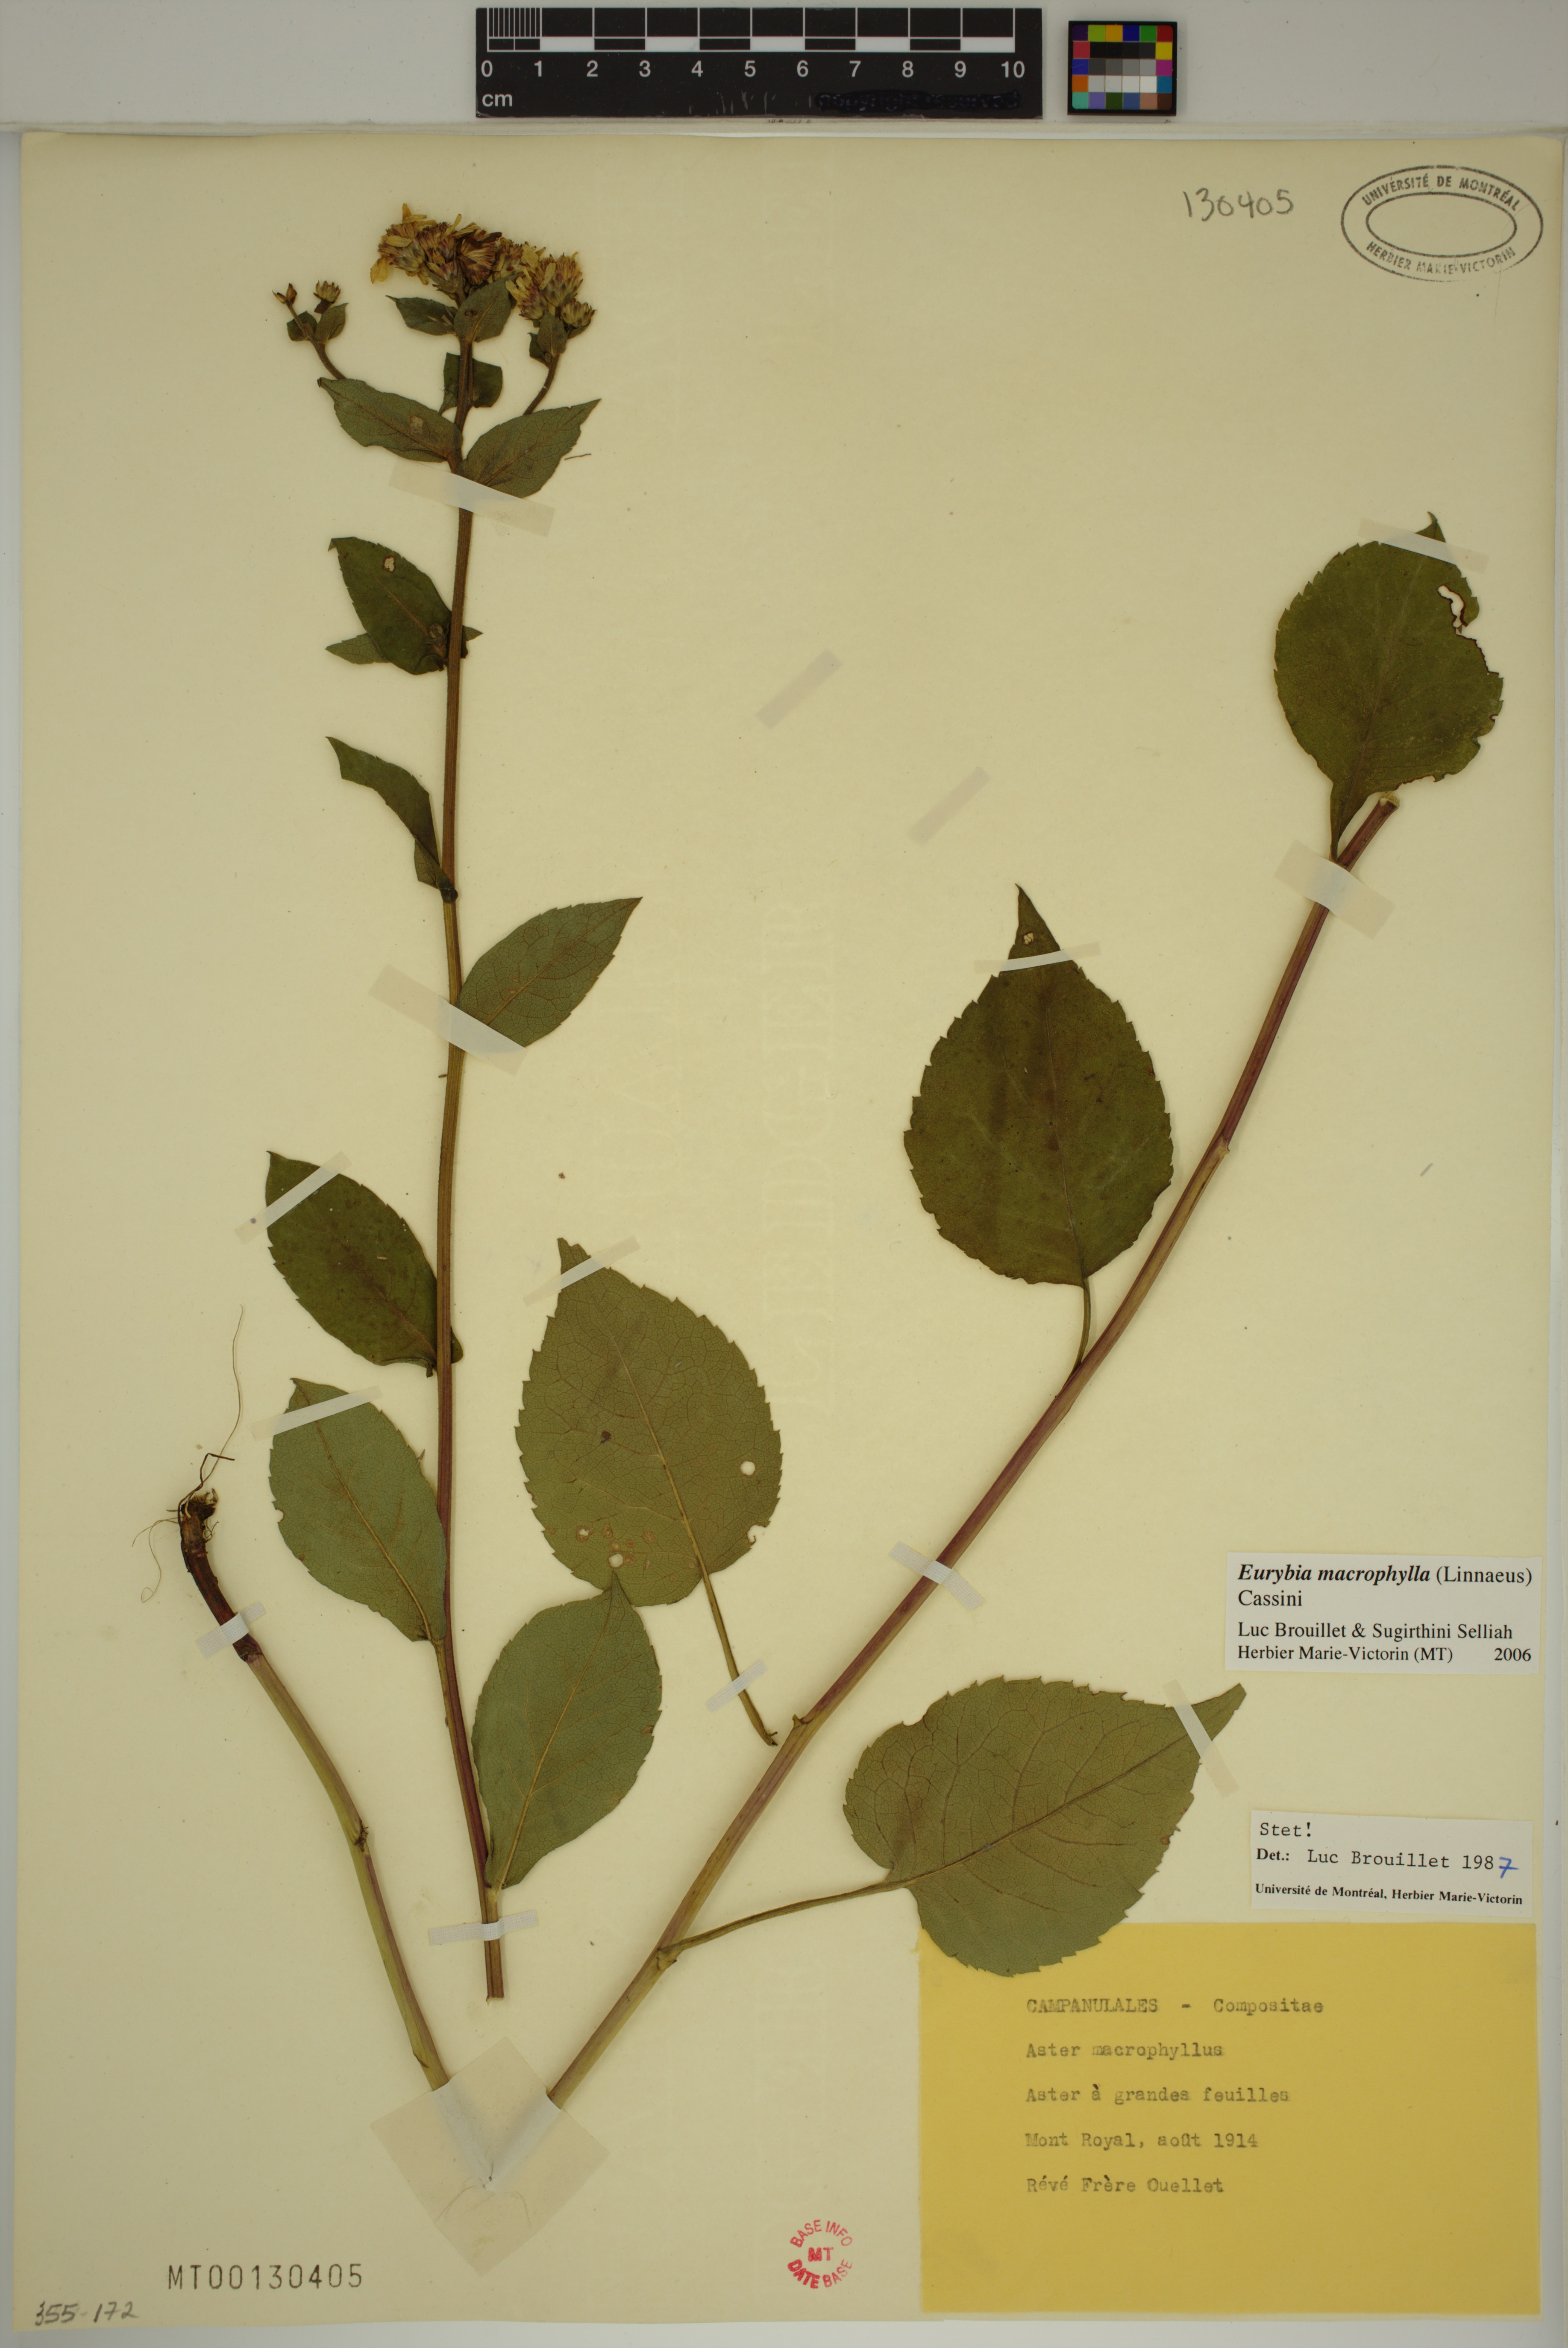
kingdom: Plantae
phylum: Tracheophyta
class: Magnoliopsida
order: Asterales
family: Asteraceae
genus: Eurybia
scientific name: Eurybia macrophylla
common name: Big-leaved aster
